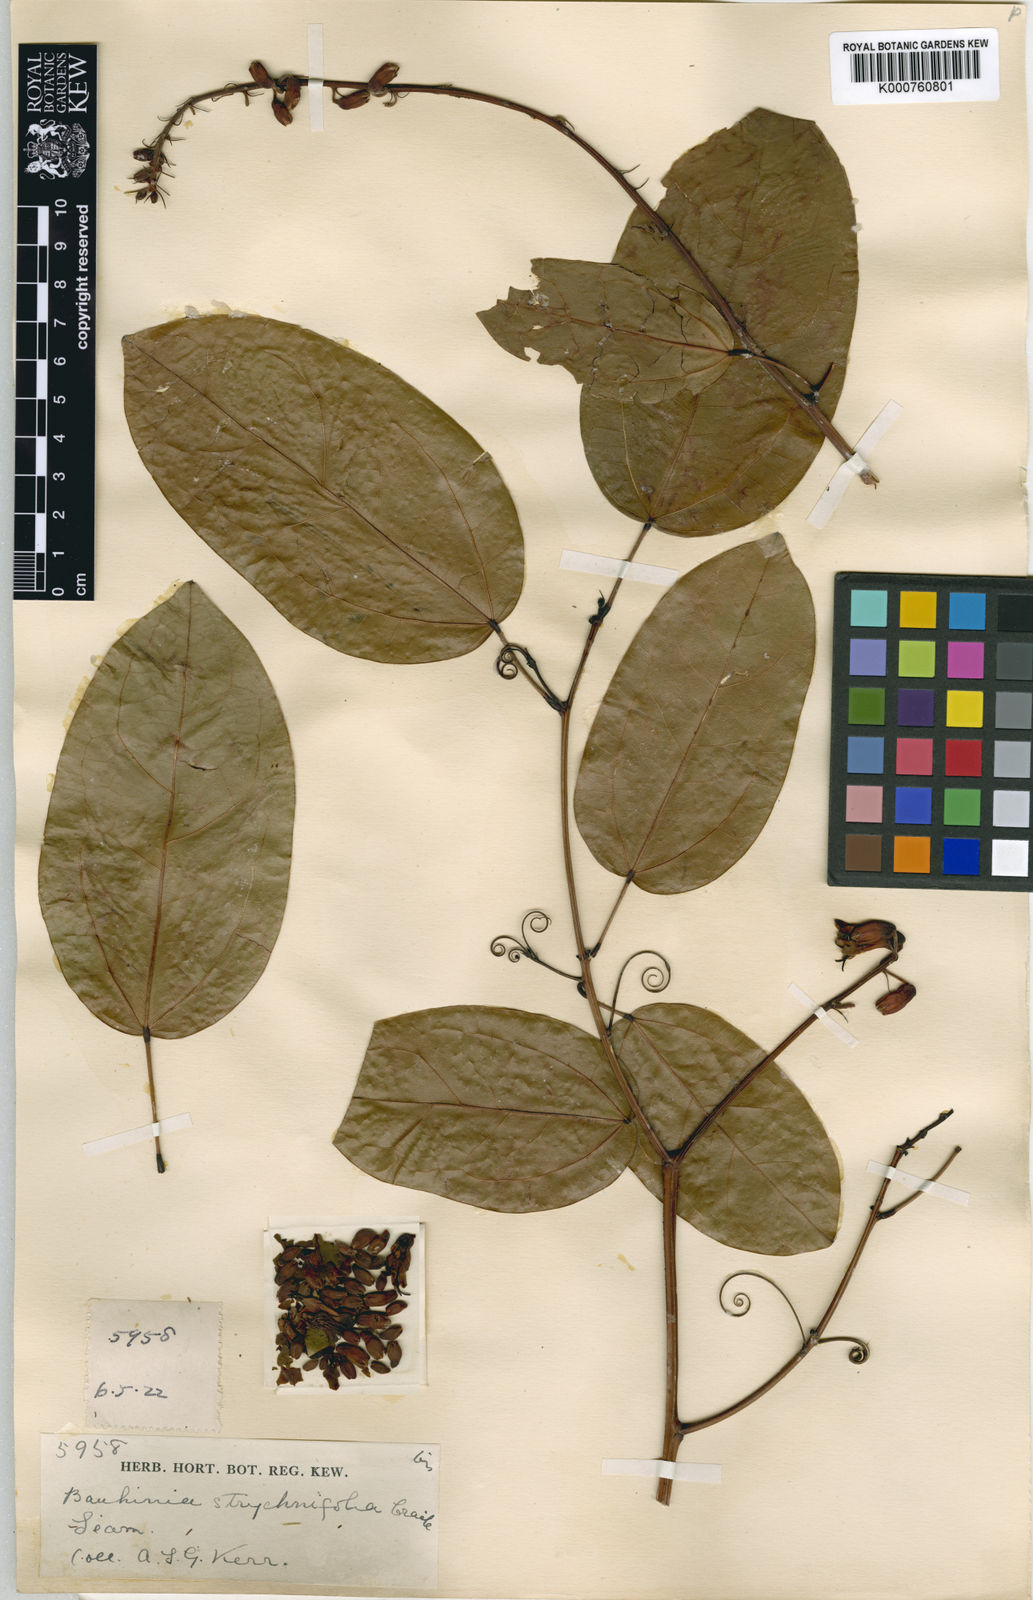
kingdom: Plantae
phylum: Tracheophyta
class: Magnoliopsida
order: Fabales
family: Fabaceae
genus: Lysiphyllum
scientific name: Lysiphyllum strychnifolium
